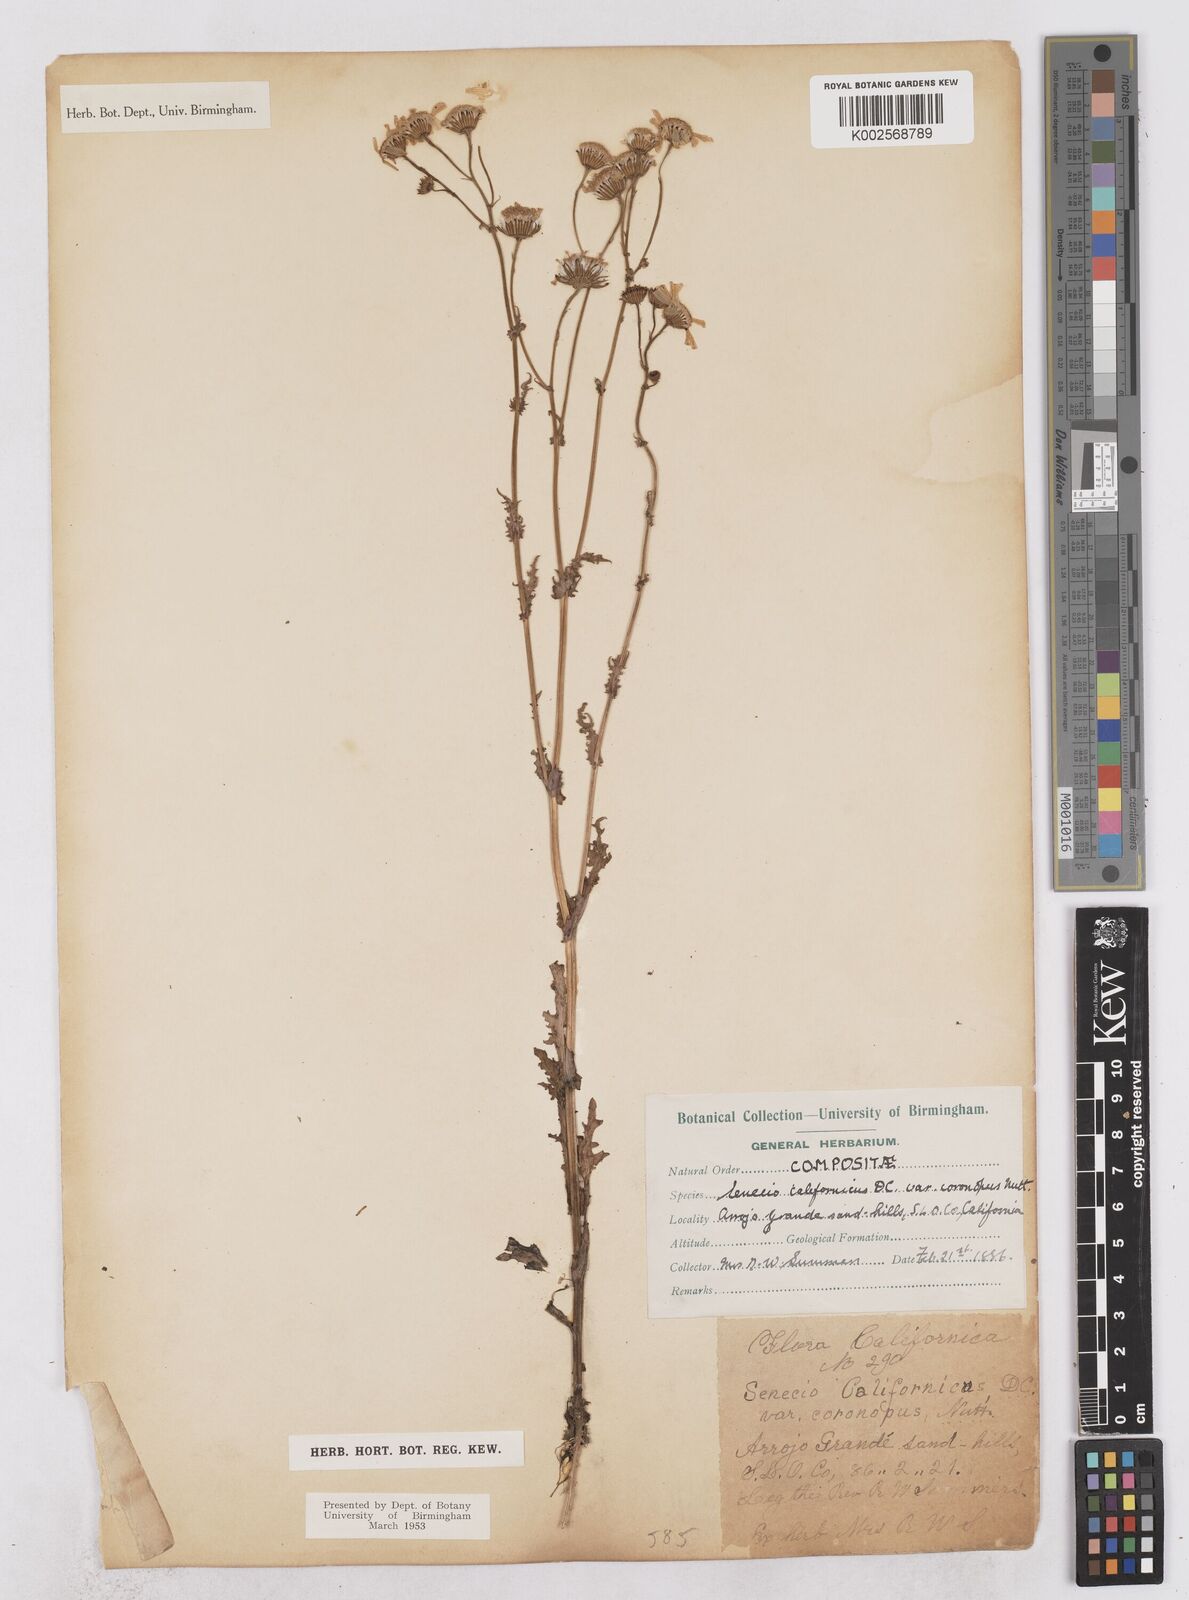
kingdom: Plantae
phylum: Tracheophyta
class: Magnoliopsida
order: Asterales
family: Asteraceae
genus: Senecio
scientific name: Senecio californicus
